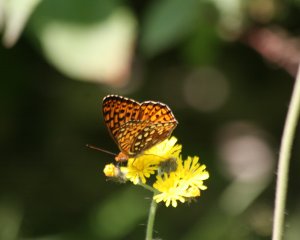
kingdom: Animalia
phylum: Arthropoda
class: Insecta
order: Lepidoptera
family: Nymphalidae
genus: Speyeria
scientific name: Speyeria atlantis
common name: Atlantis Fritillary
